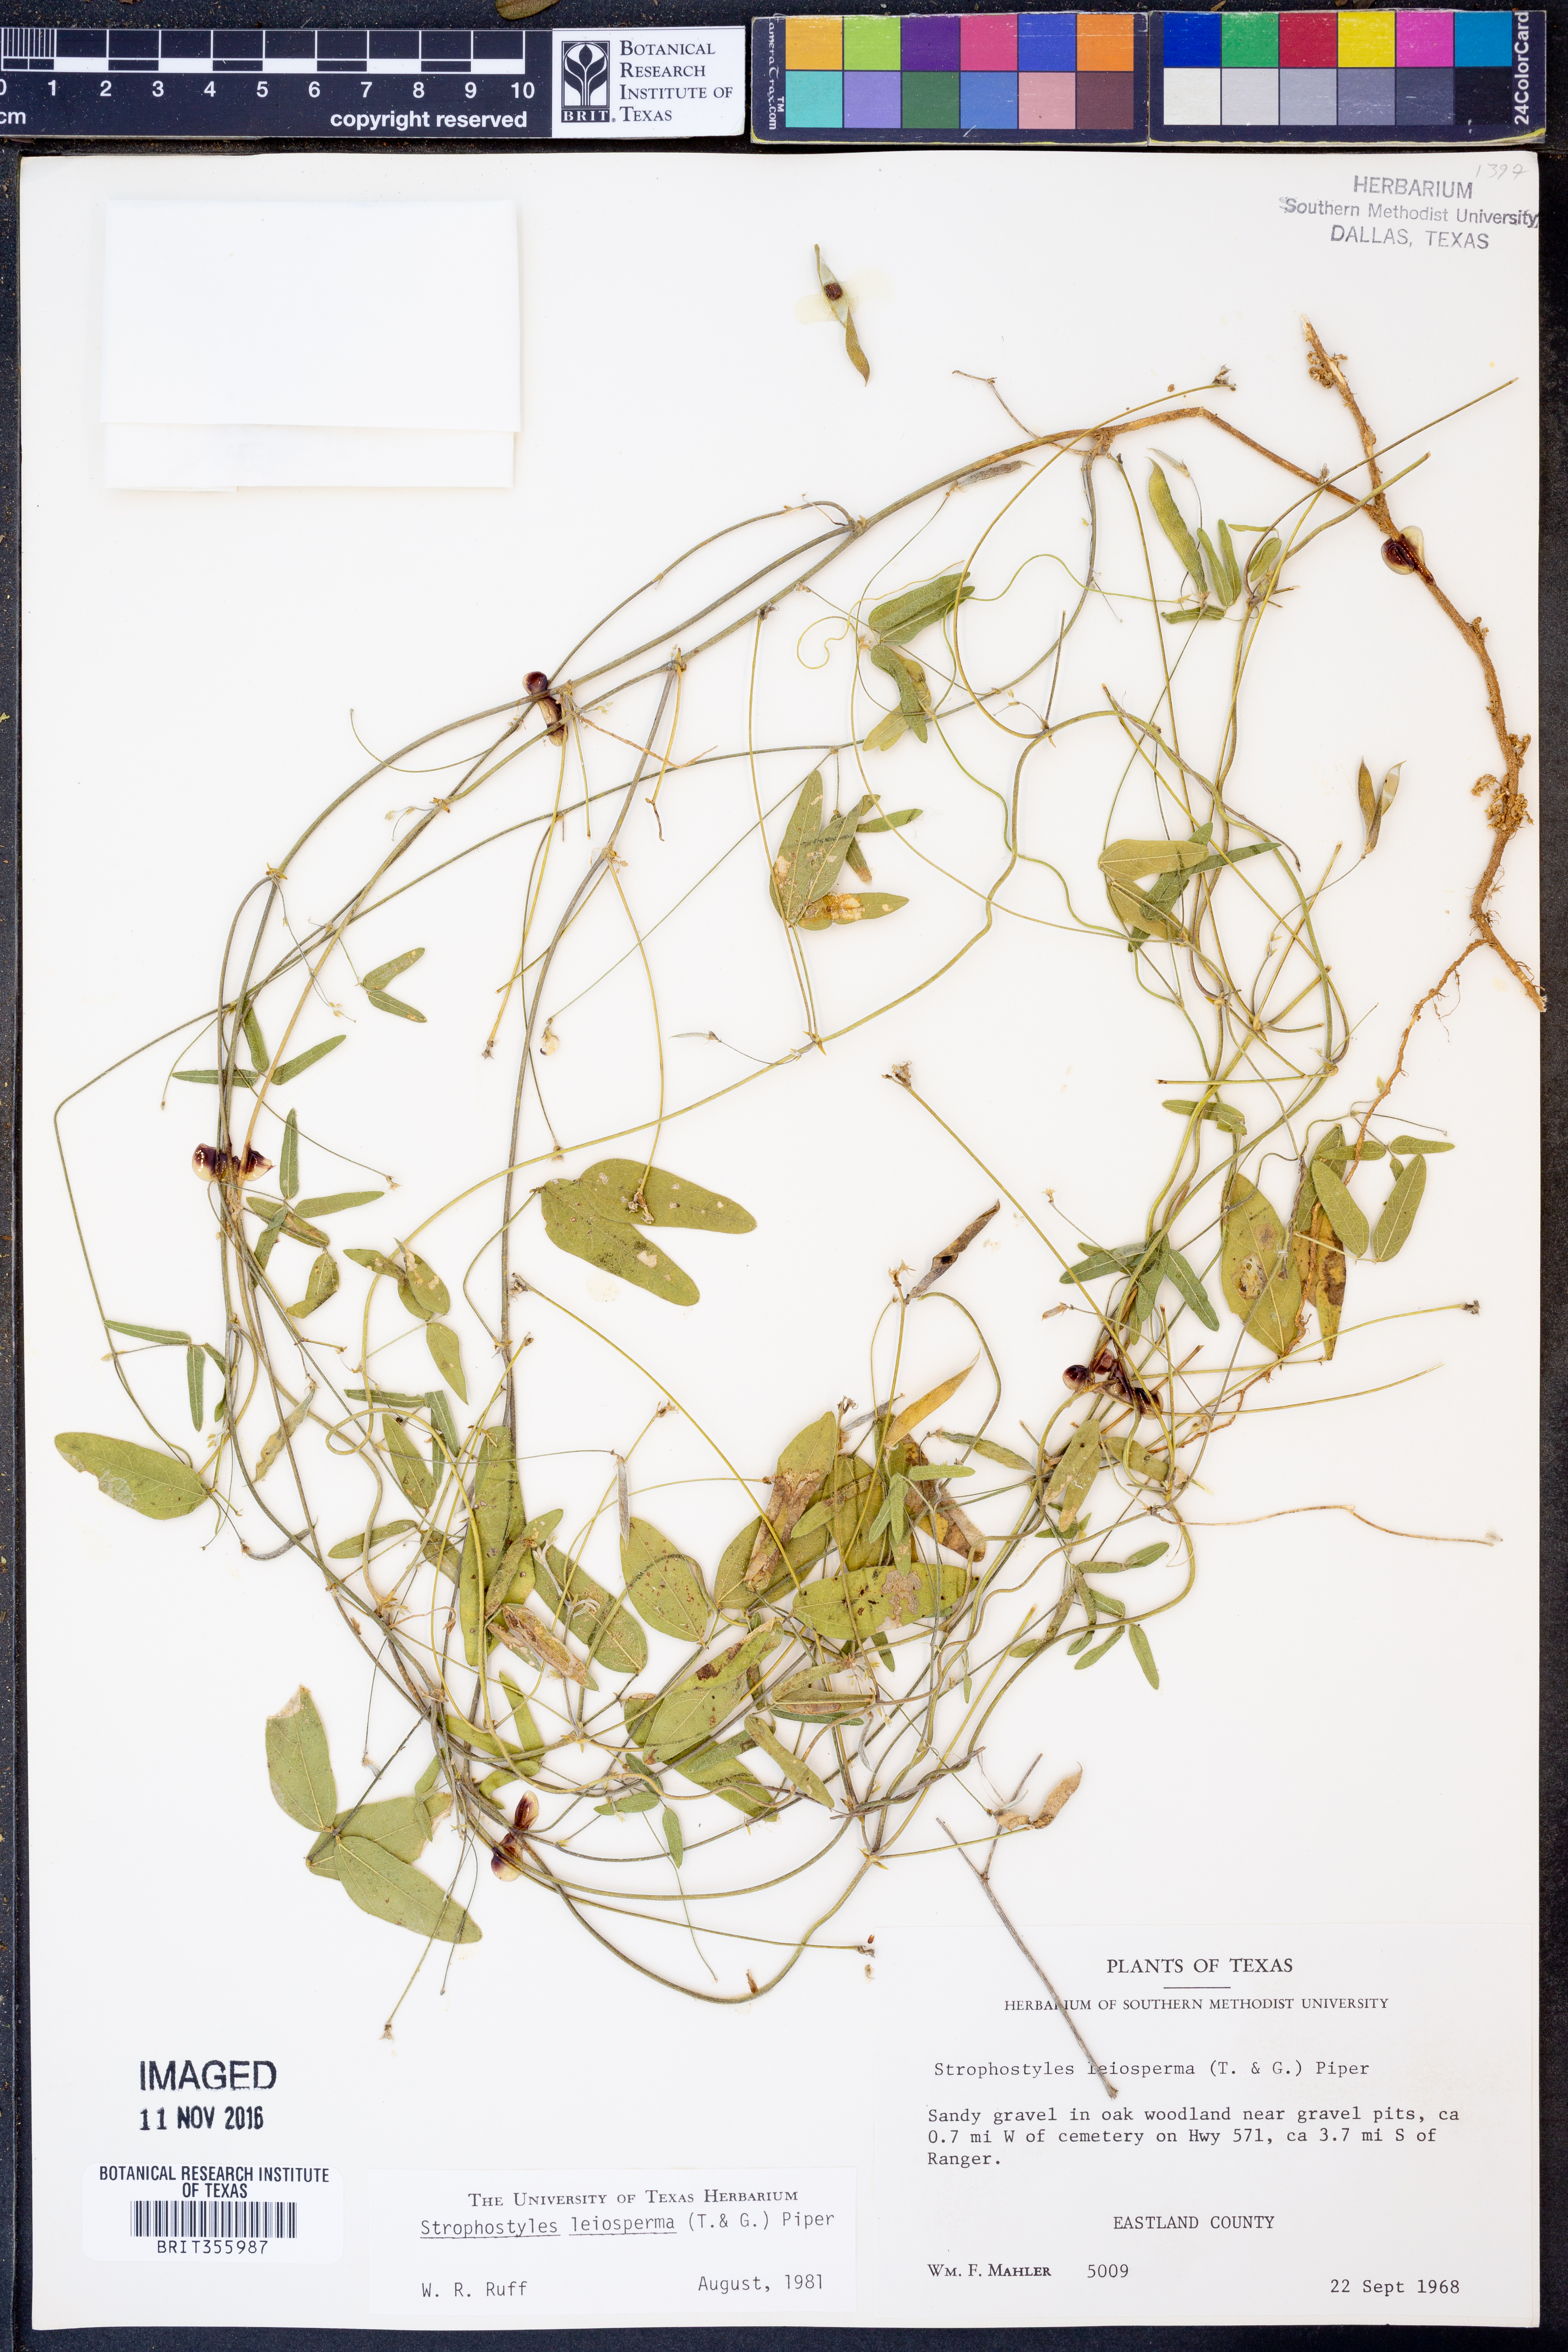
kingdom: Plantae
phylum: Tracheophyta
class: Magnoliopsida
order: Fabales
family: Fabaceae
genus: Strophostyles
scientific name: Strophostyles leiosperma
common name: Smooth-seed wild bean
